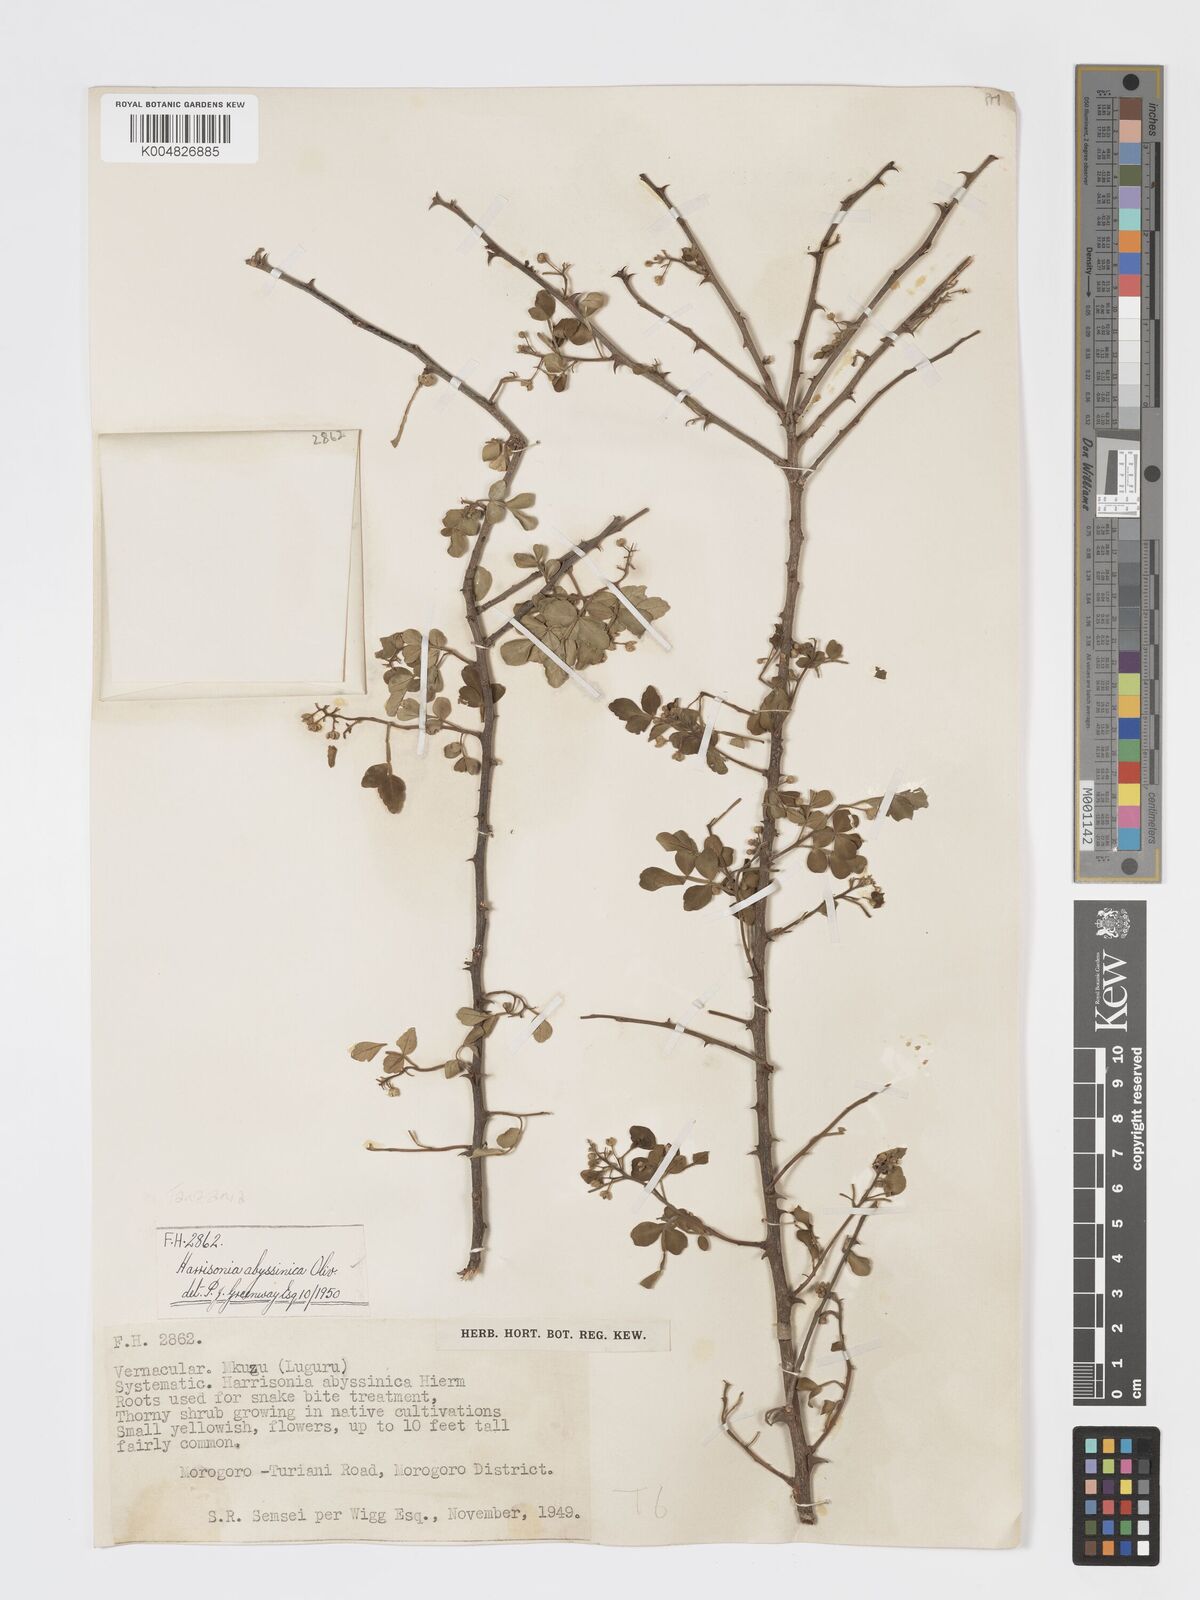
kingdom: Plantae
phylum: Tracheophyta
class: Magnoliopsida
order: Sapindales
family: Rutaceae
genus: Harrisonia
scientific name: Harrisonia abyssinica
